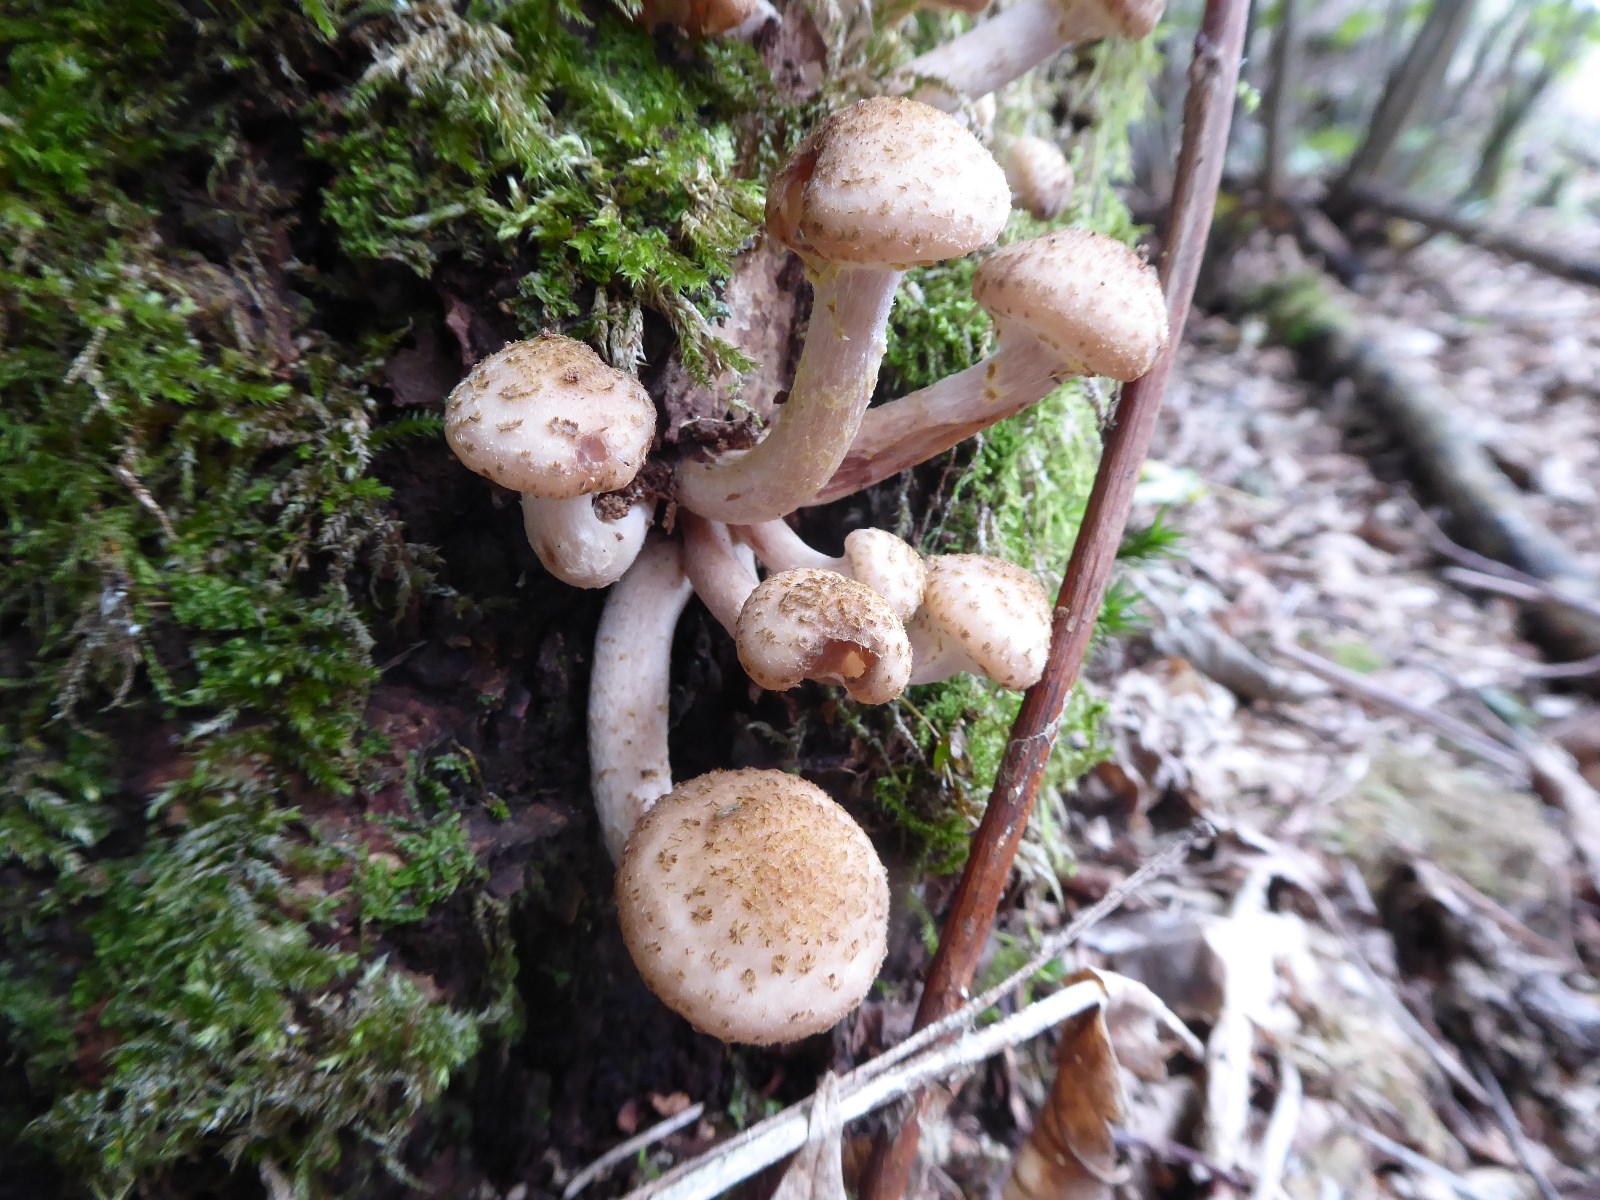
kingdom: Fungi
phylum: Basidiomycota
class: Agaricomycetes
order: Agaricales
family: Physalacriaceae
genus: Armillaria
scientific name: Armillaria borealis
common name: nordlig honningsvamp
